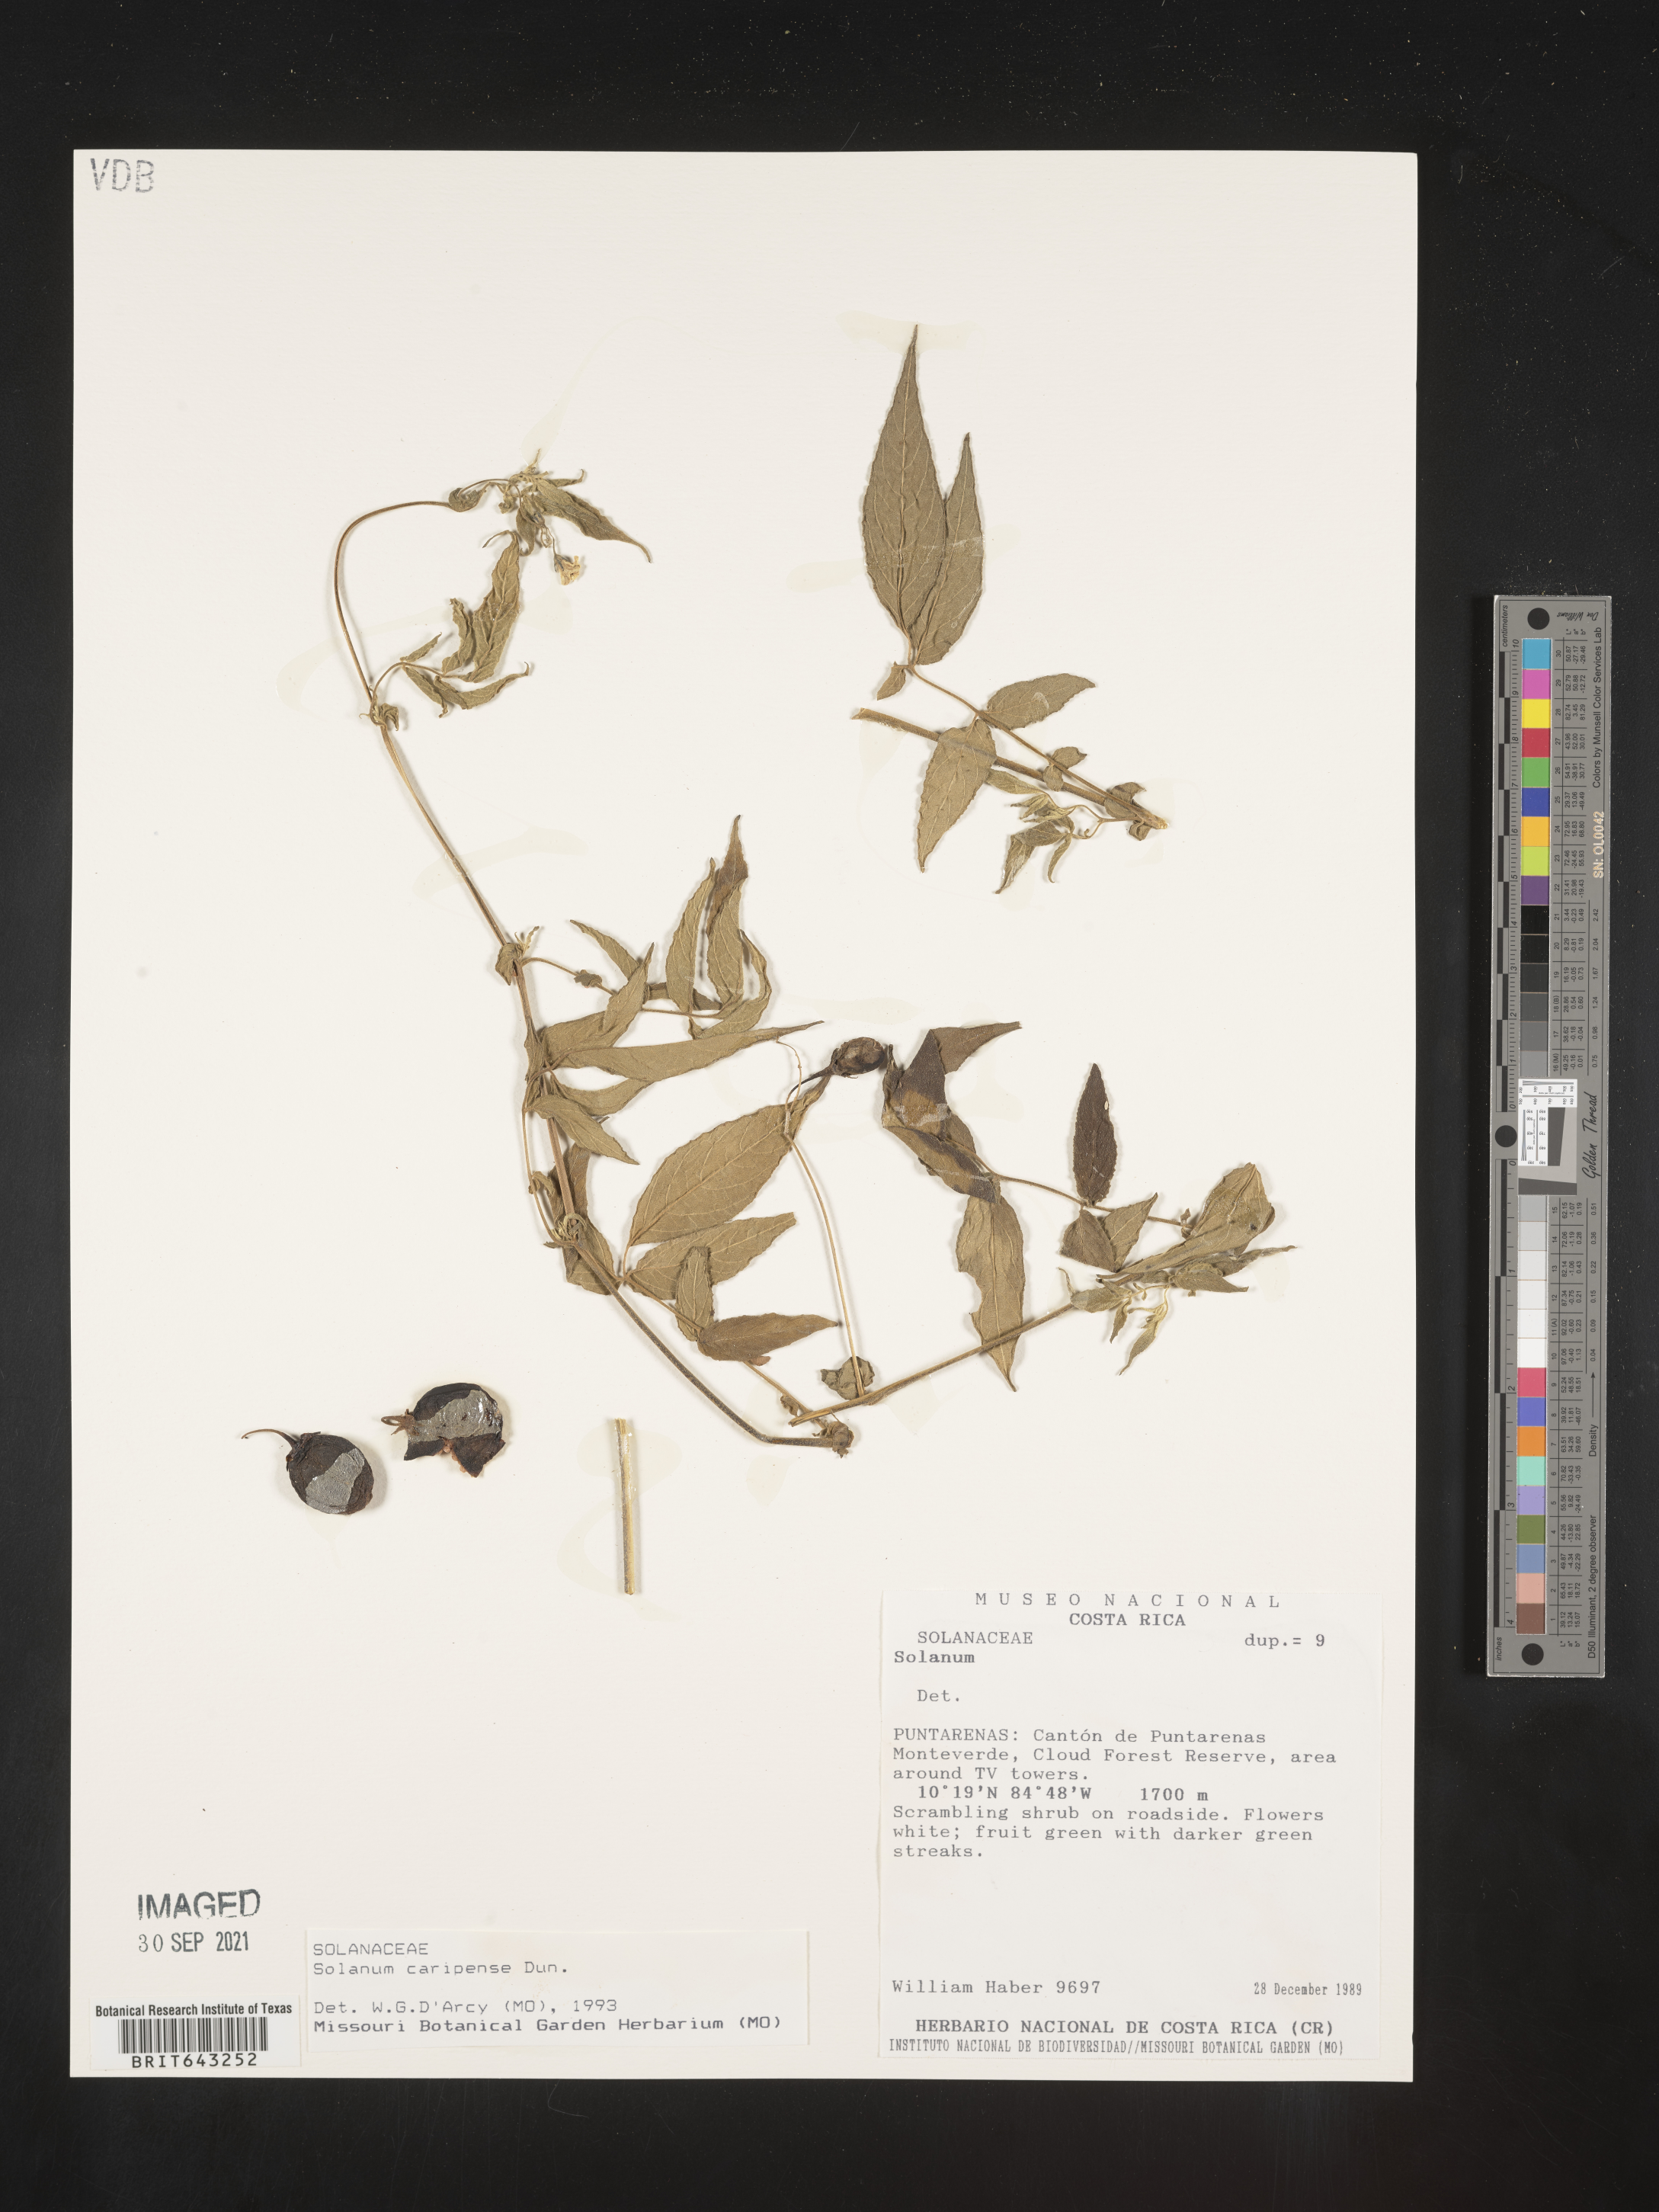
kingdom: Plantae
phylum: Tracheophyta
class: Magnoliopsida
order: Solanales
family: Solanaceae
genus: Solanum
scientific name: Solanum
